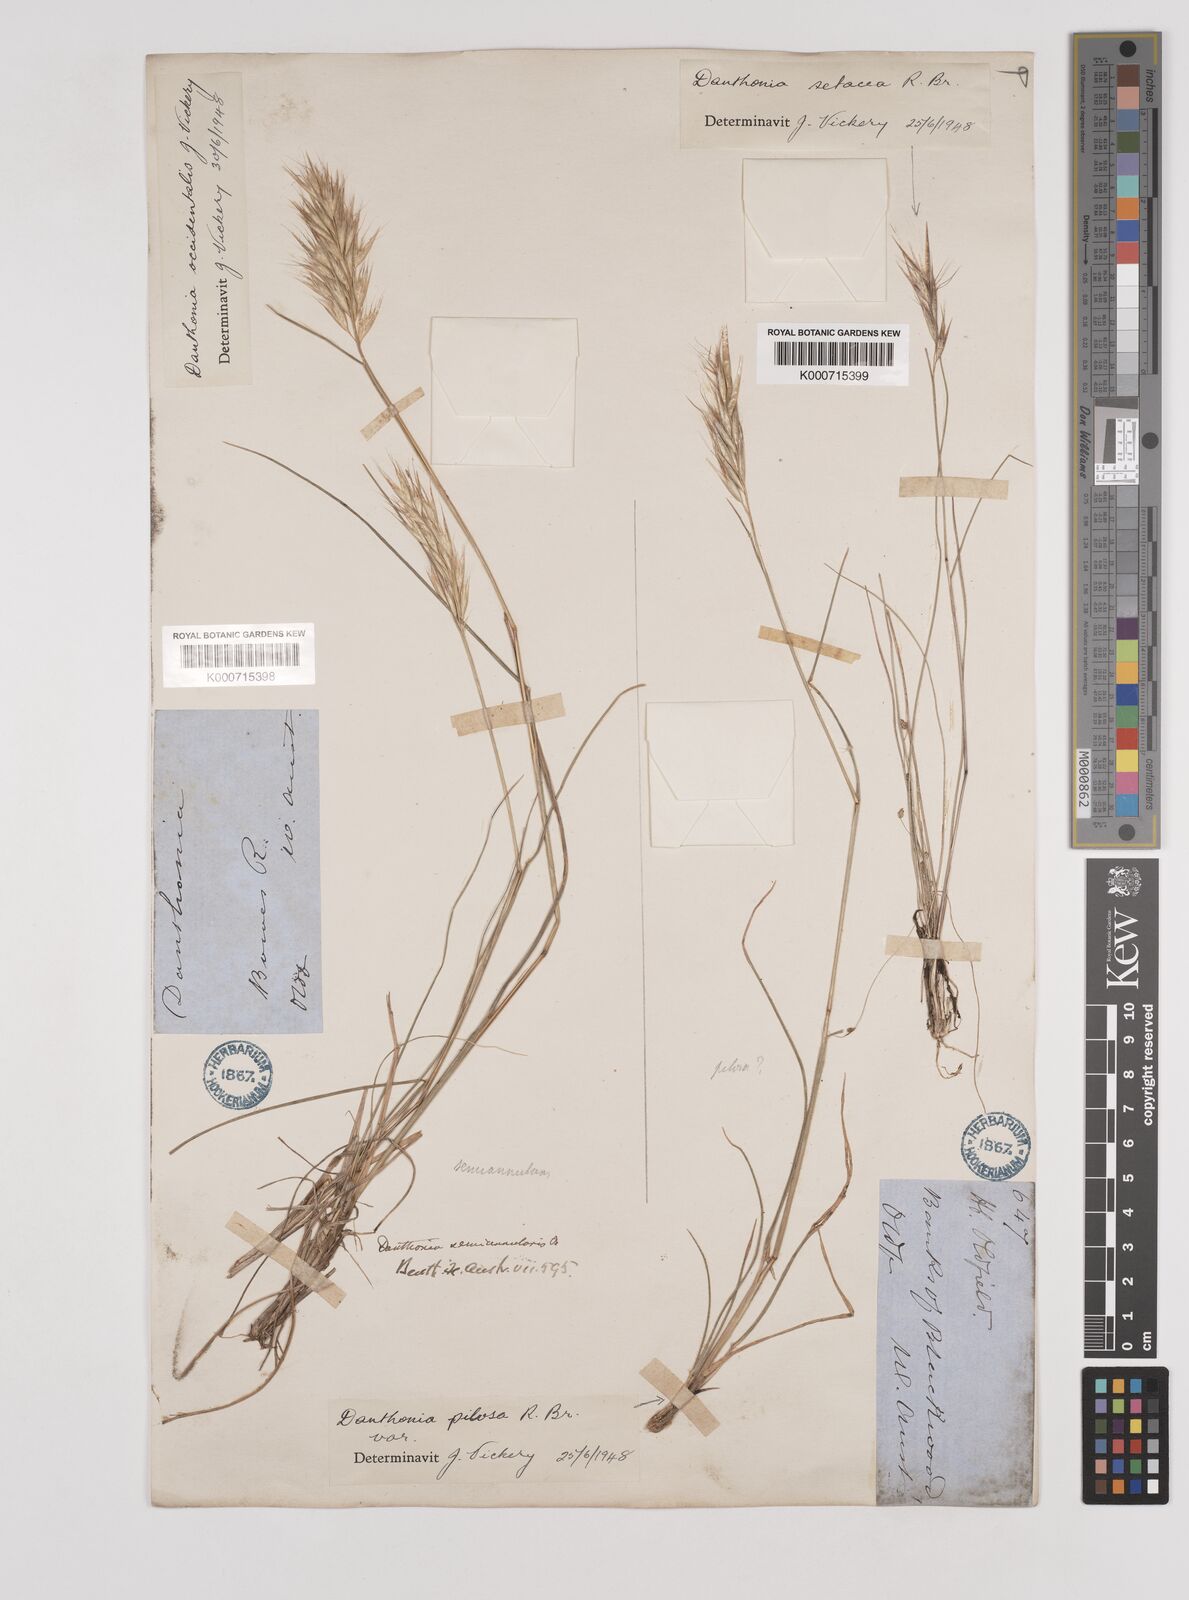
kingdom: Plantae
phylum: Tracheophyta
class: Liliopsida
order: Poales
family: Poaceae
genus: Rytidosperma
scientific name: Rytidosperma occidentale
